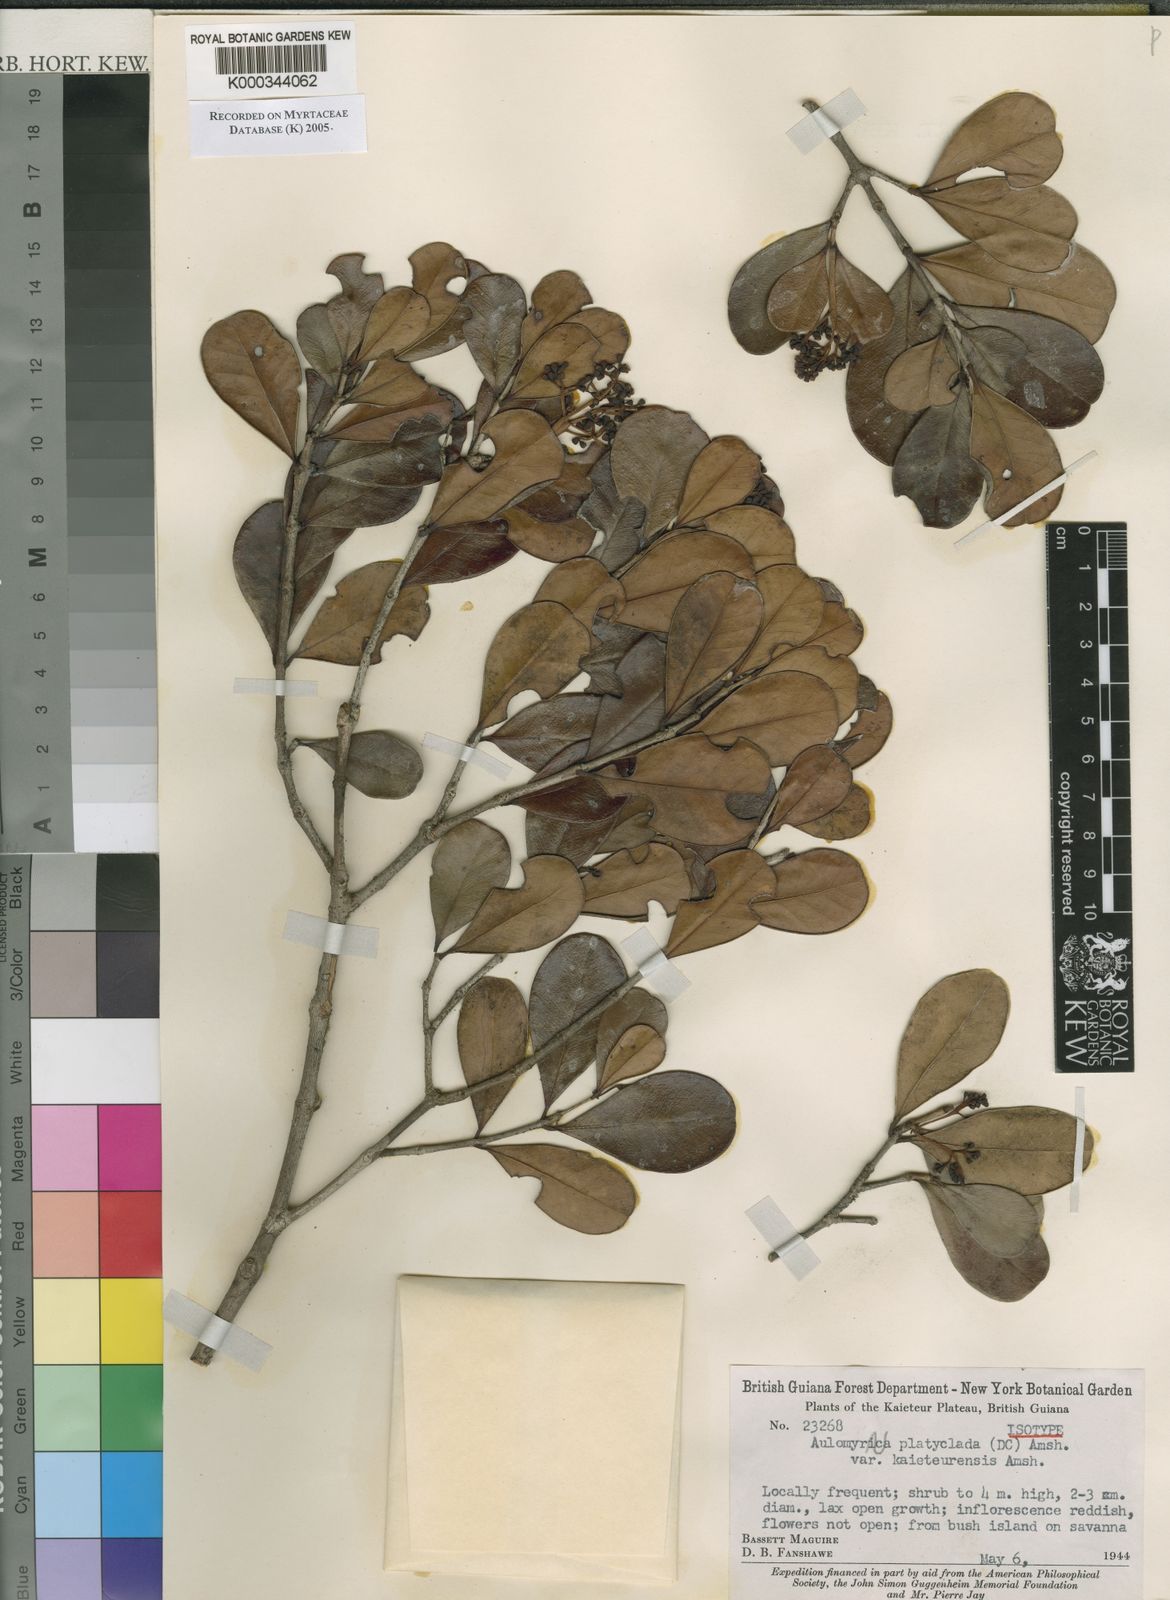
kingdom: Plantae
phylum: Tracheophyta
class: Magnoliopsida
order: Myrtales
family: Myrtaceae
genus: Myrcia
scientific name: Myrcia platyclada
